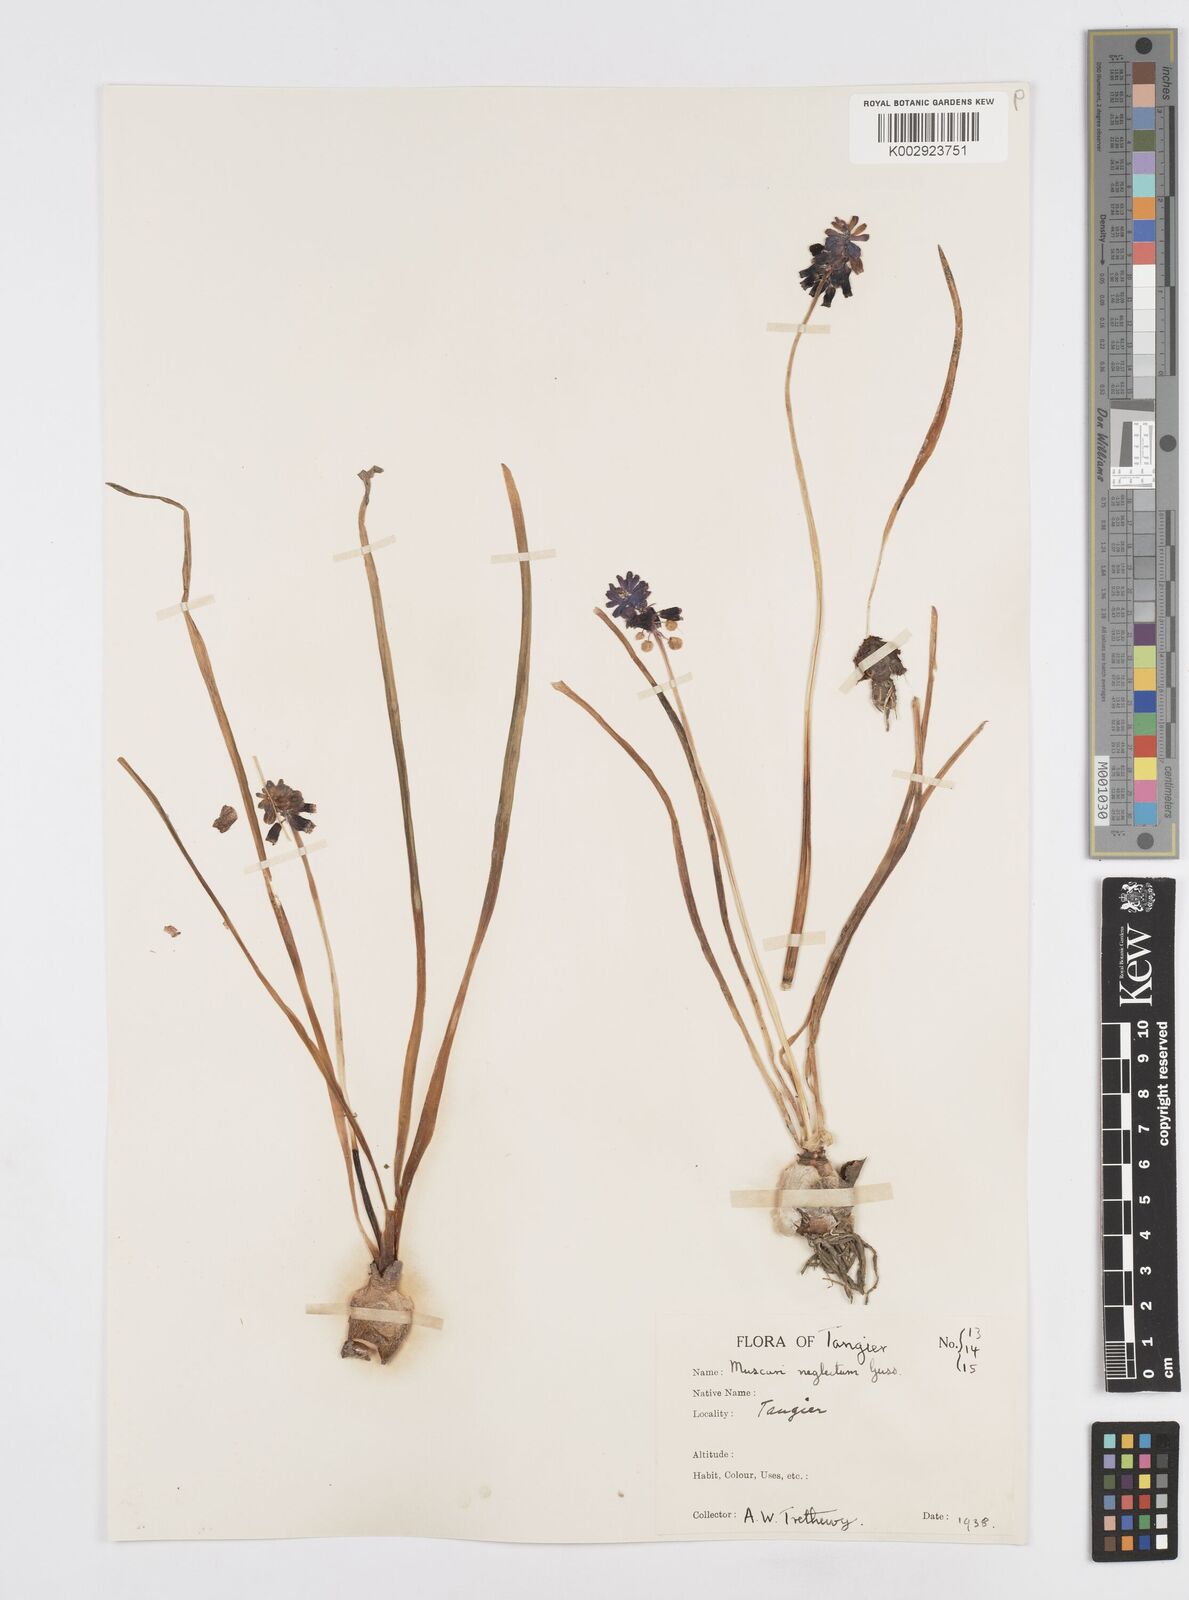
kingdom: Plantae
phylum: Tracheophyta
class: Liliopsida
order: Asparagales
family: Asparagaceae
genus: Muscari
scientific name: Muscari neglectum
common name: Grape-hyacinth
